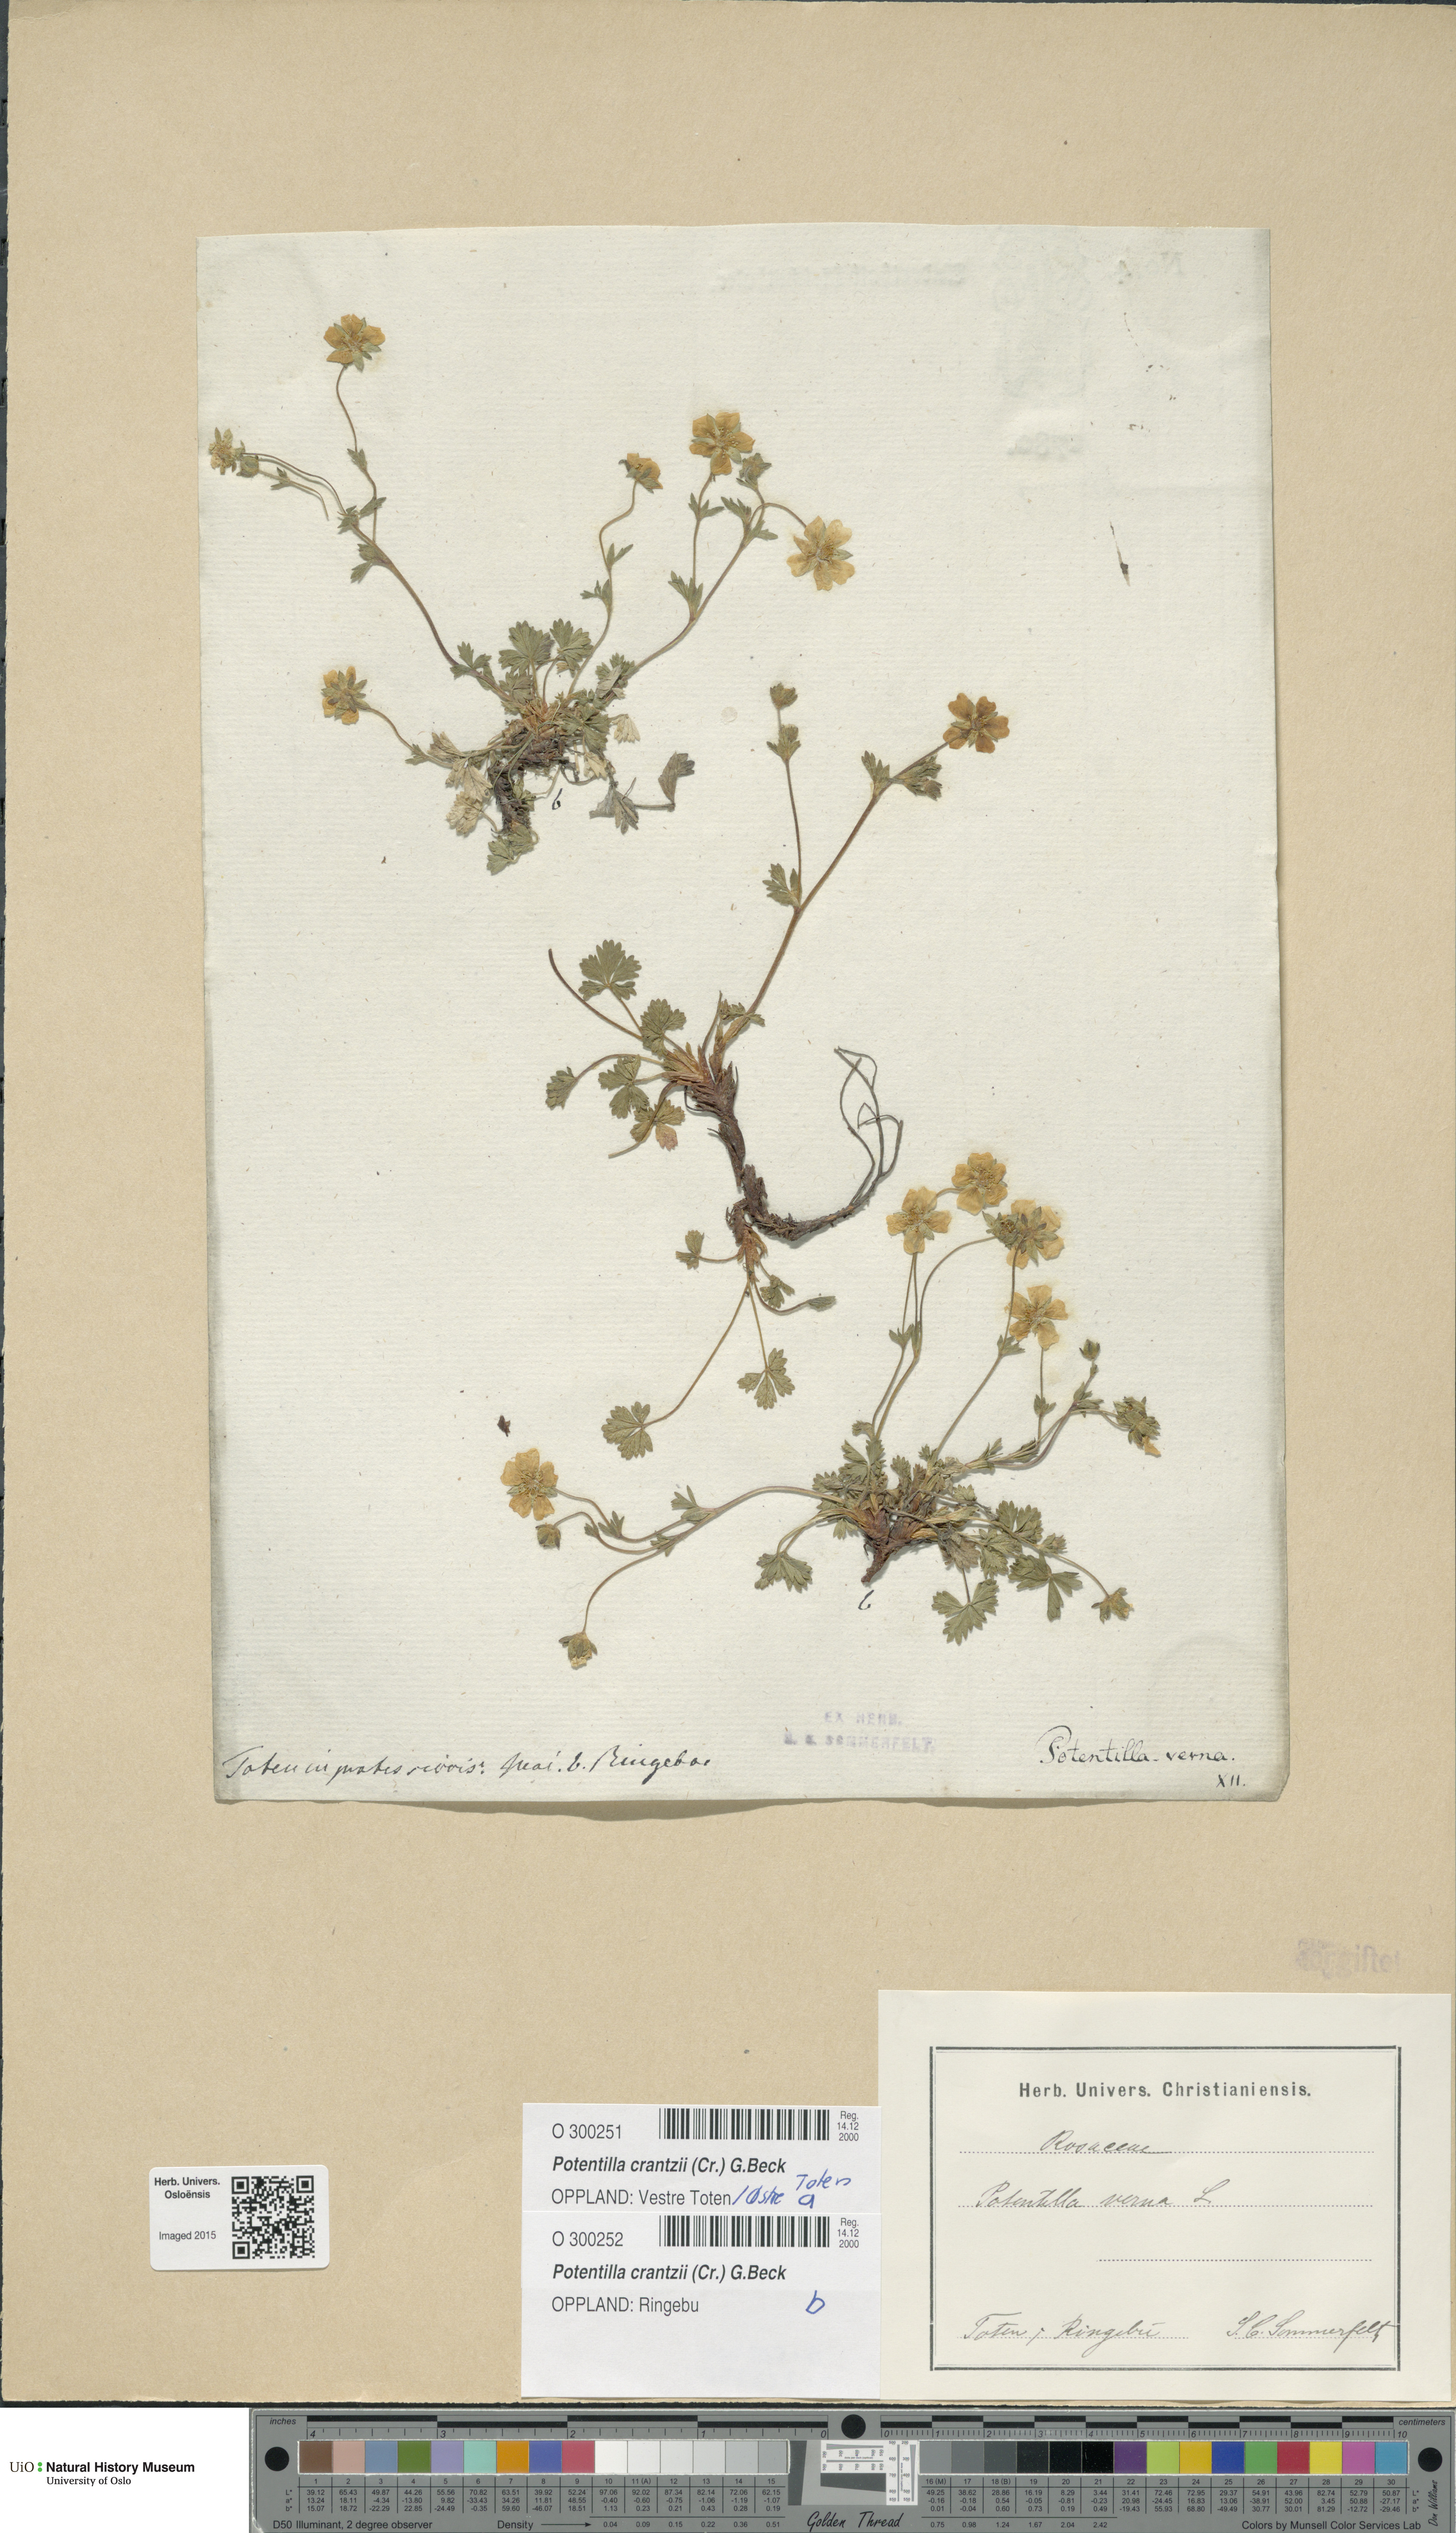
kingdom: Plantae
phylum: Tracheophyta
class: Magnoliopsida
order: Rosales
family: Rosaceae
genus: Potentilla
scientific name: Potentilla verna
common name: Spring cinquefoil
